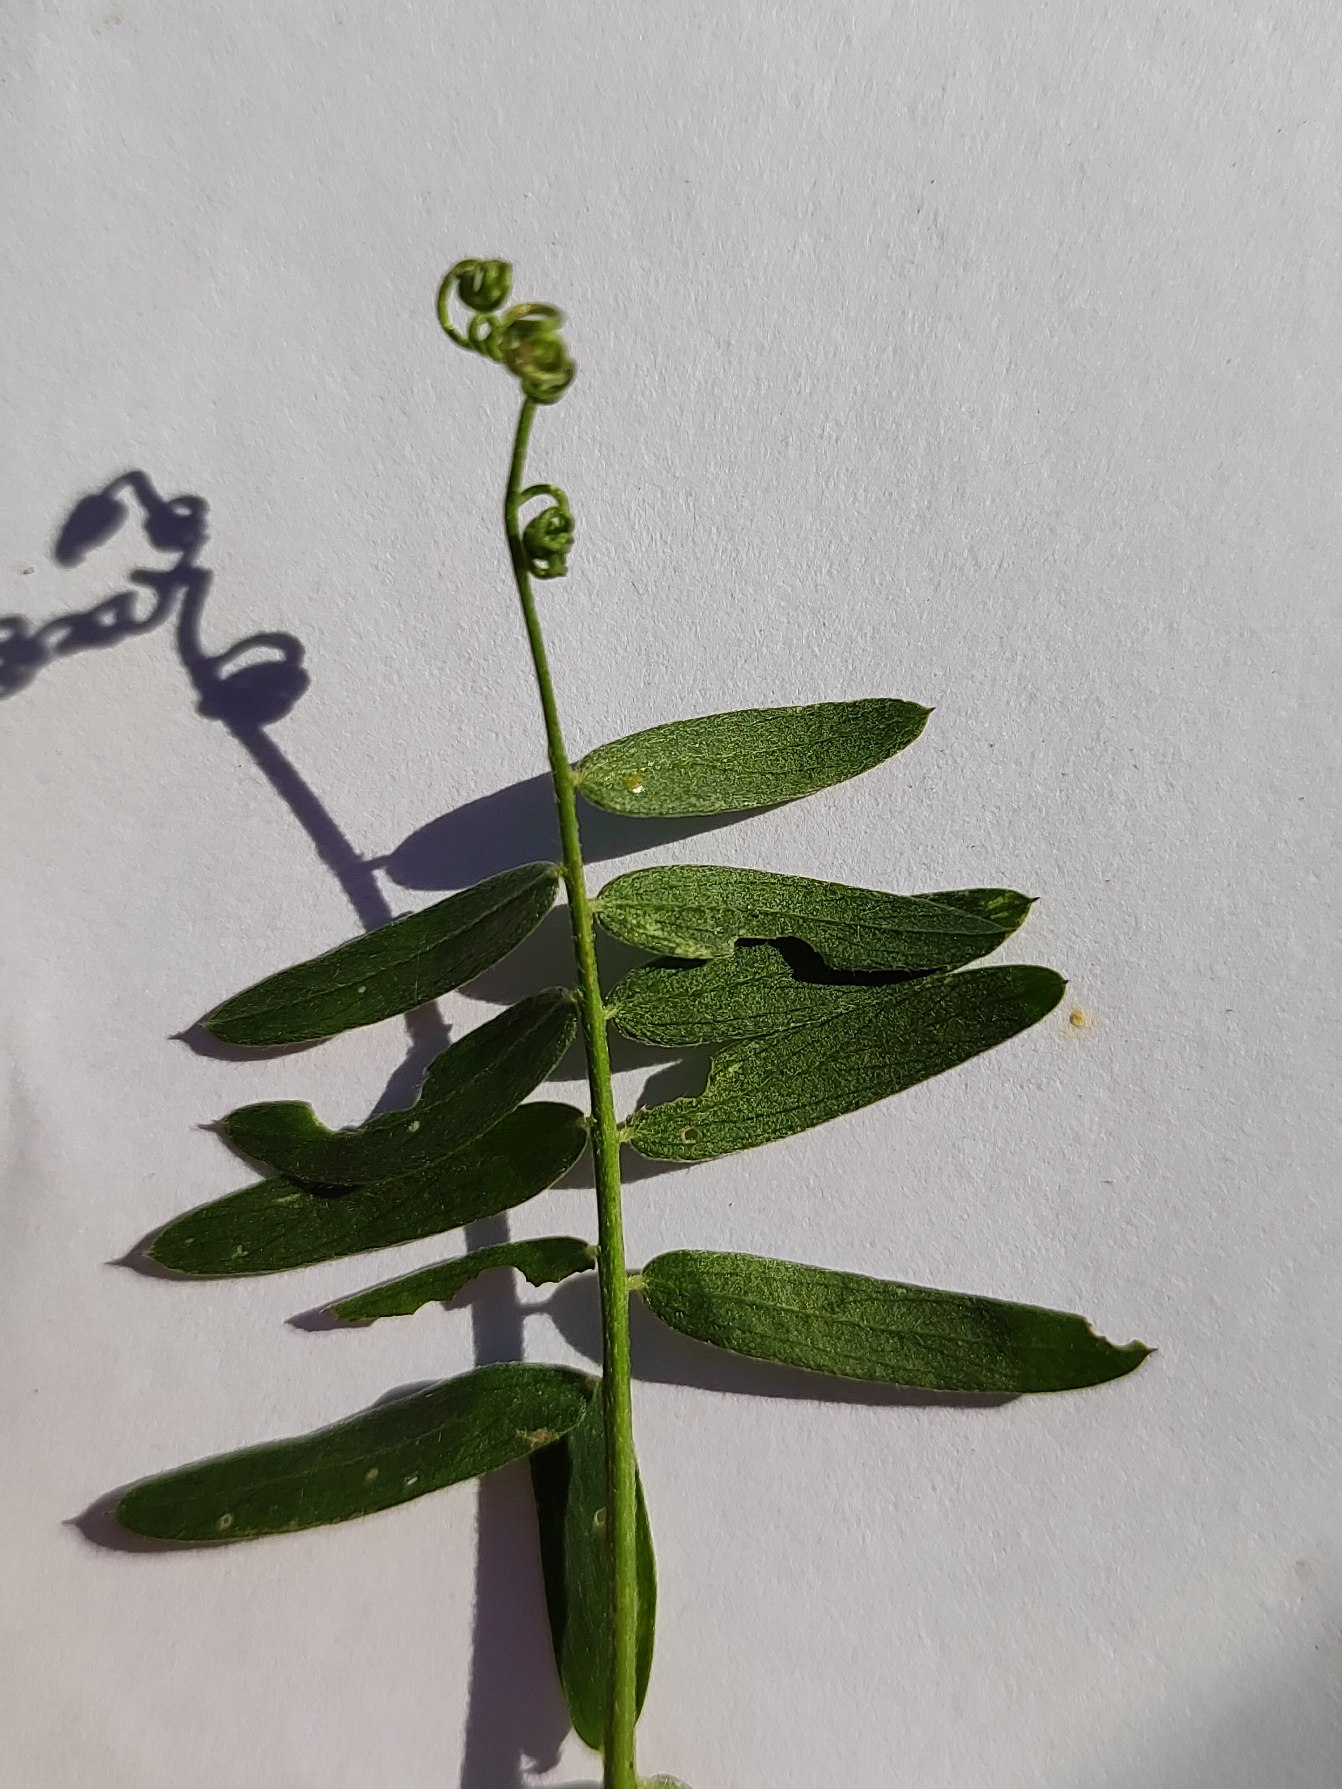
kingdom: Plantae
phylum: Tracheophyta
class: Magnoliopsida
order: Fabales
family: Fabaceae
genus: Vicia
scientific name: Vicia cracca
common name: Muse-vikke
